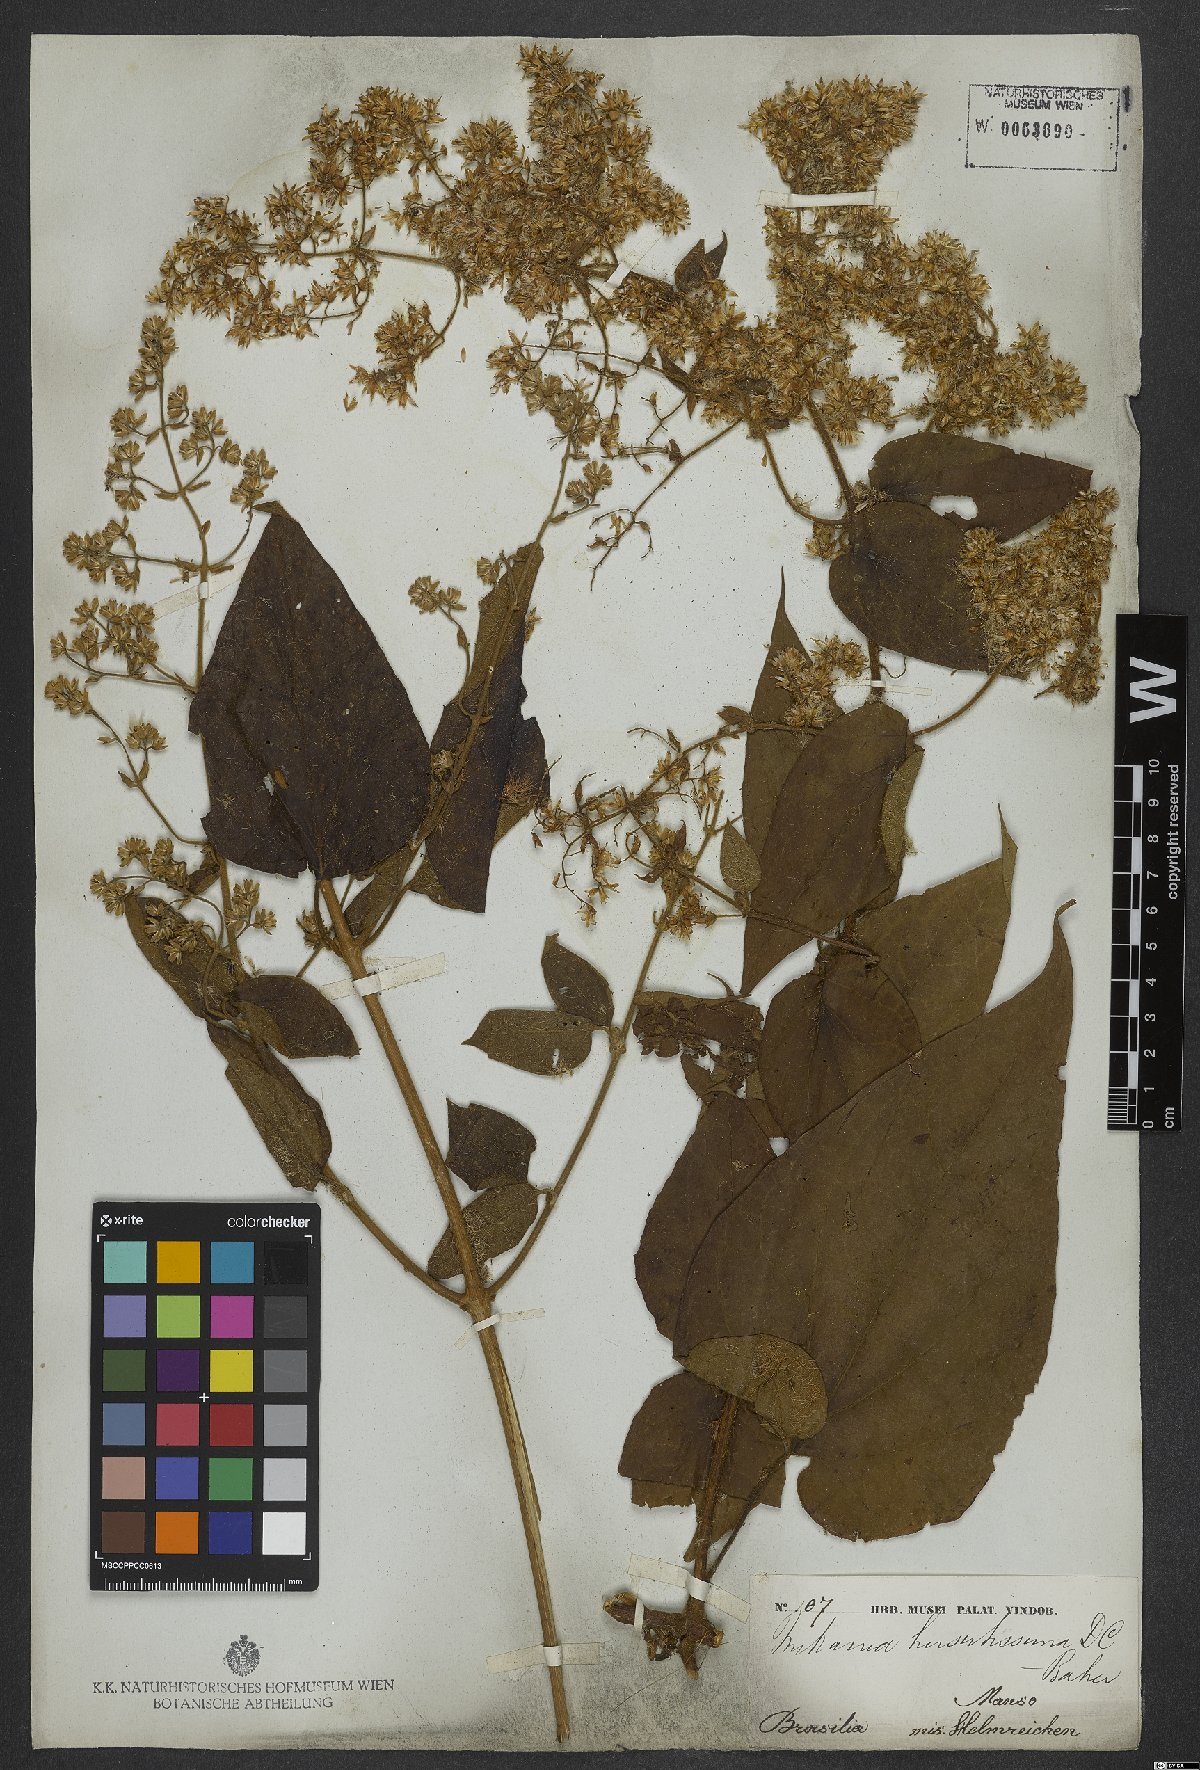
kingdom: Plantae
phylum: Tracheophyta
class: Magnoliopsida
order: Asterales
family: Asteraceae
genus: Mikania
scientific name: Mikania banisteriae
